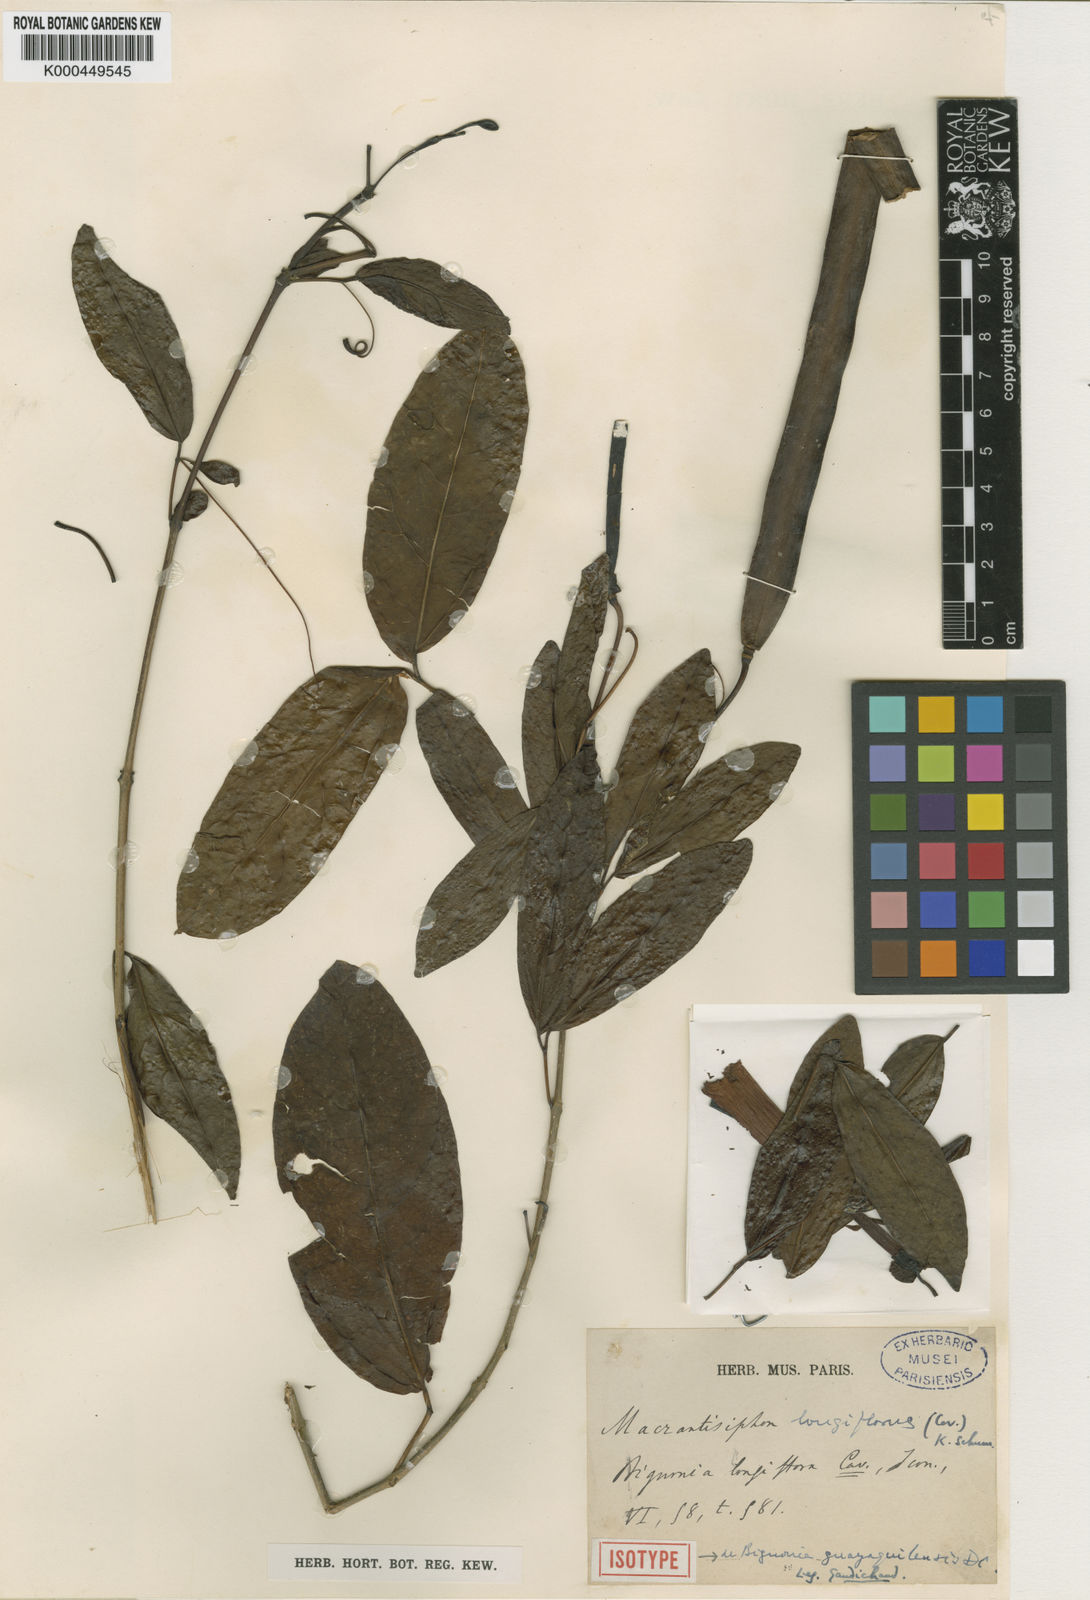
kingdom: Plantae
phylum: Tracheophyta
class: Magnoliopsida
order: Lamiales
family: Bignoniaceae
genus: Bignonia
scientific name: Bignonia longiflora
